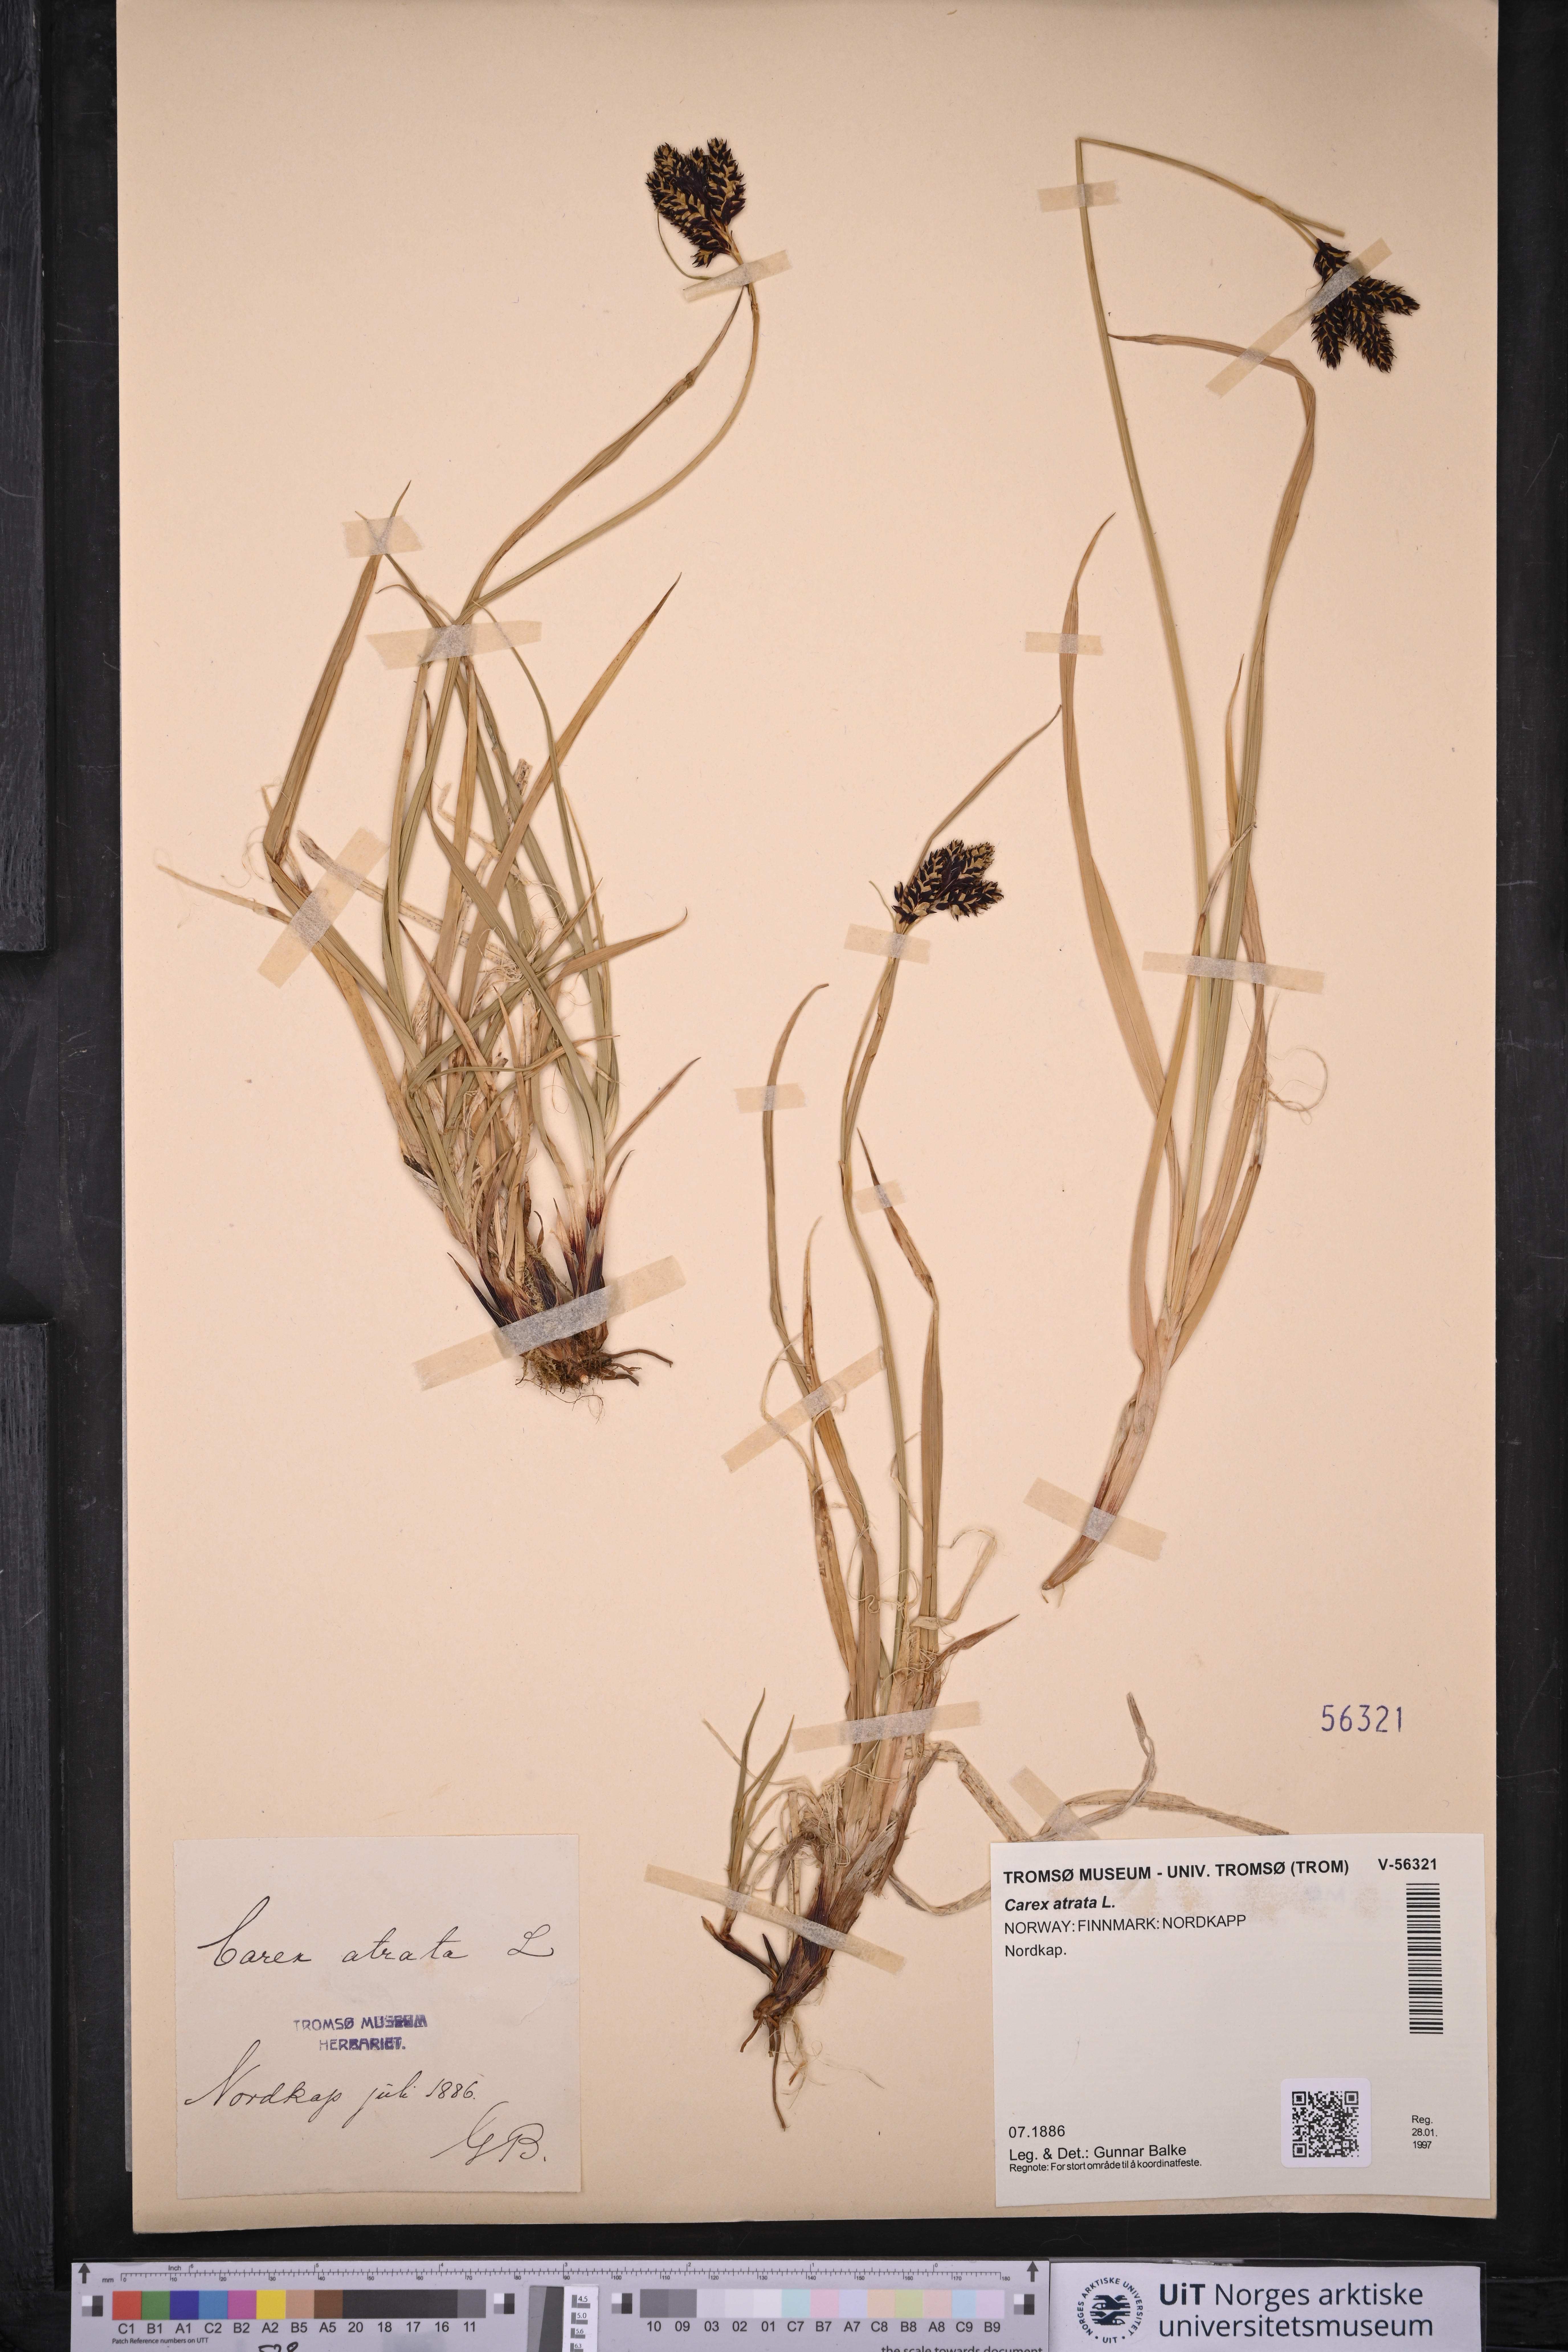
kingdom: Plantae
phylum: Tracheophyta
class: Liliopsida
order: Poales
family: Cyperaceae
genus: Carex
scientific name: Carex atrata
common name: Black alpine sedge
